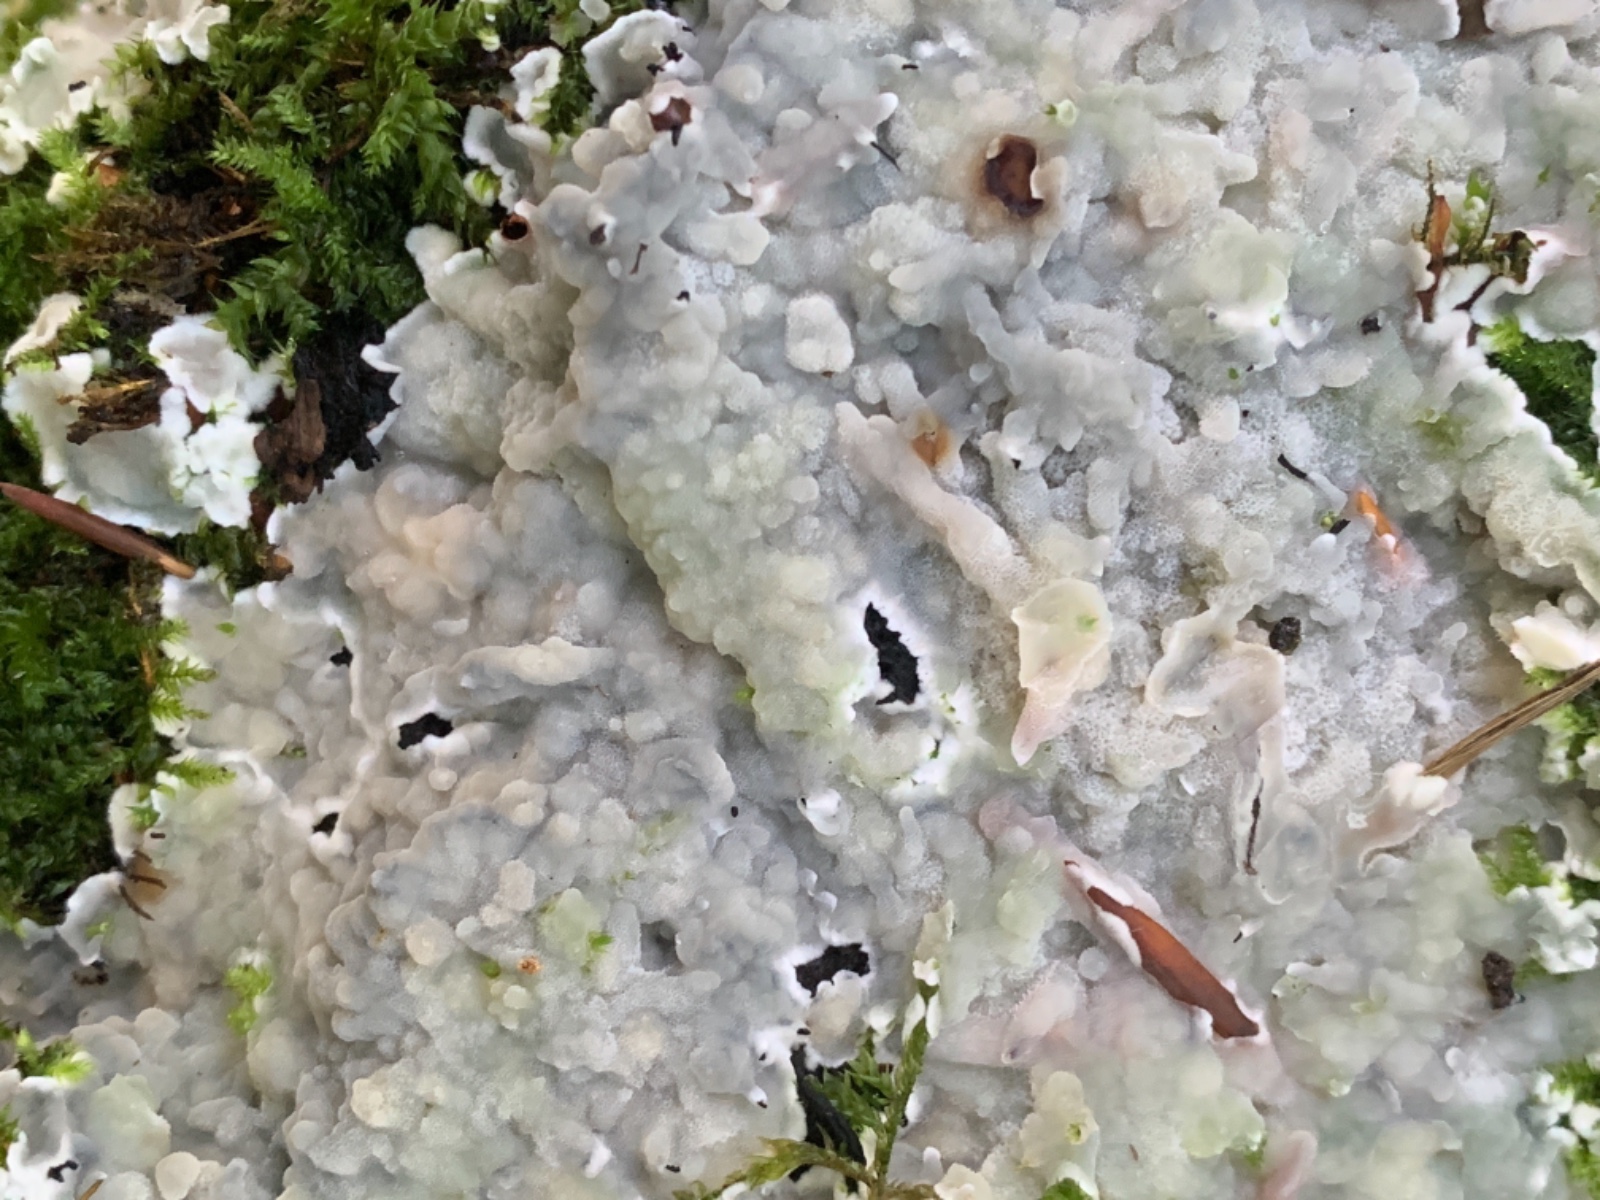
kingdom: Fungi
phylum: Basidiomycota
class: Agaricomycetes
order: Polyporales
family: Meruliaceae
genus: Physisporinus
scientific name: Physisporinus vitreus
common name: mastesvamp
